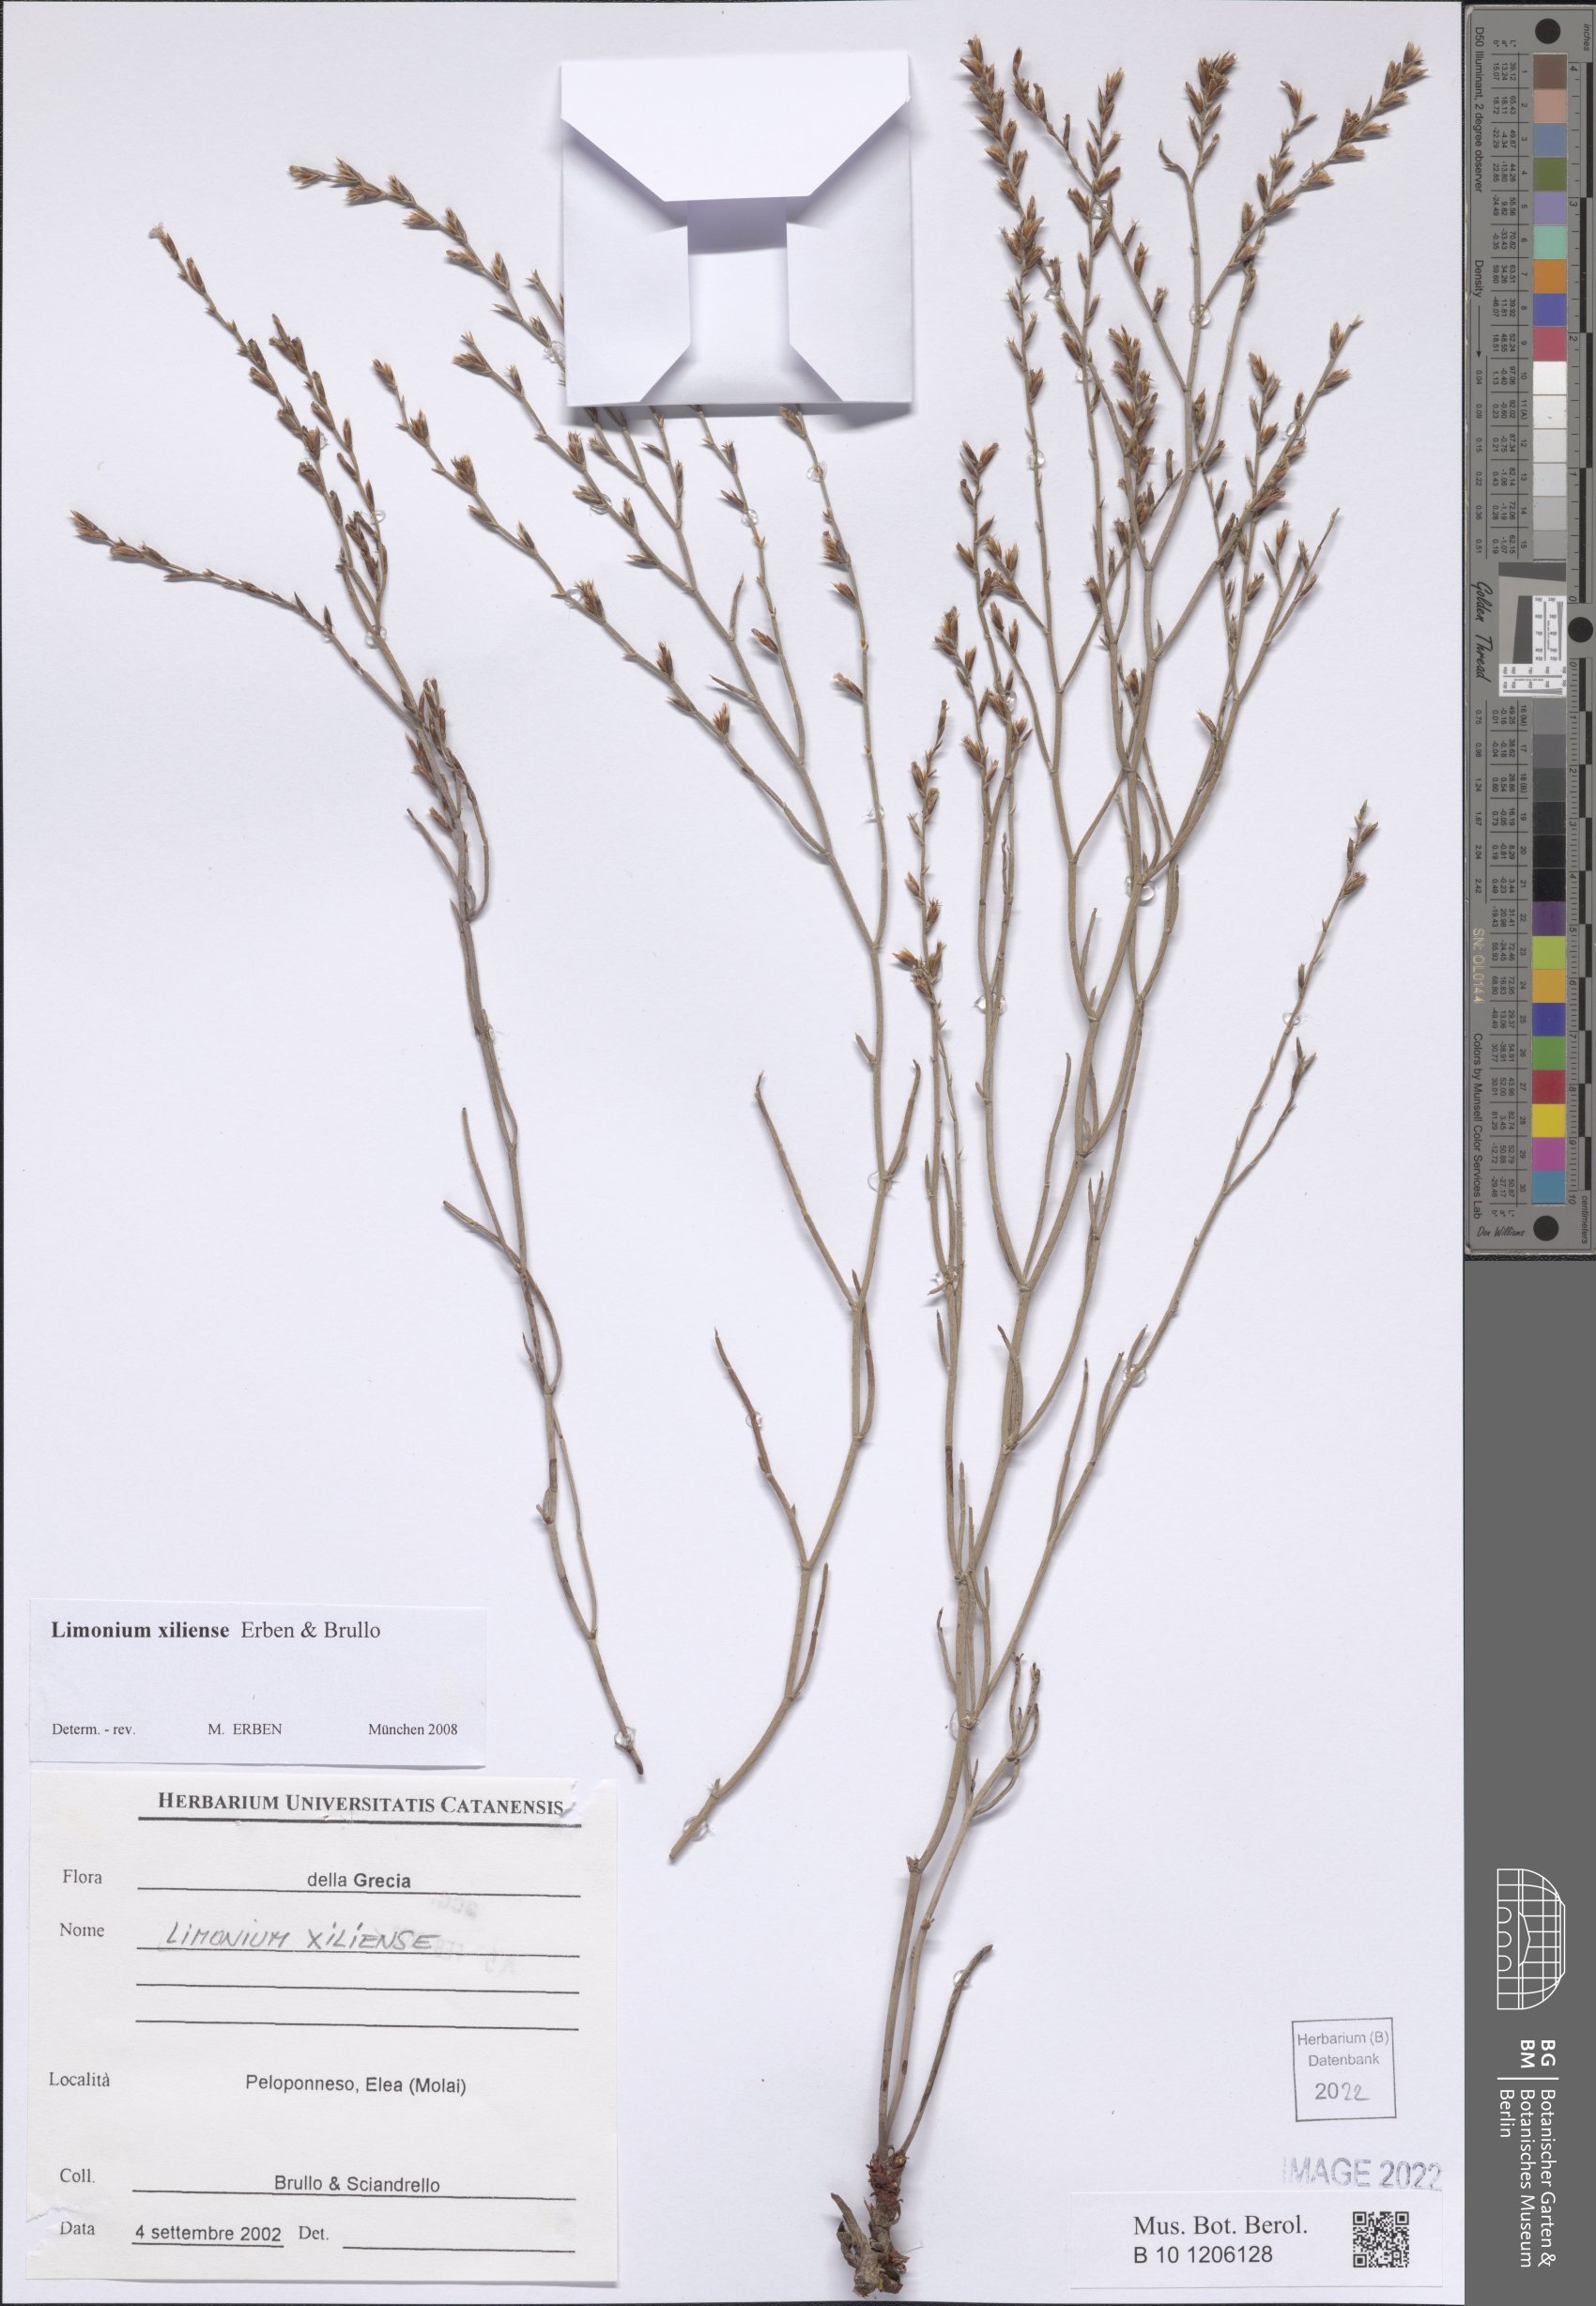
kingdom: Plantae
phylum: Tracheophyta
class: Magnoliopsida
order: Caryophyllales
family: Plumbaginaceae
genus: Limonium
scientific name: Limonium xiliense
